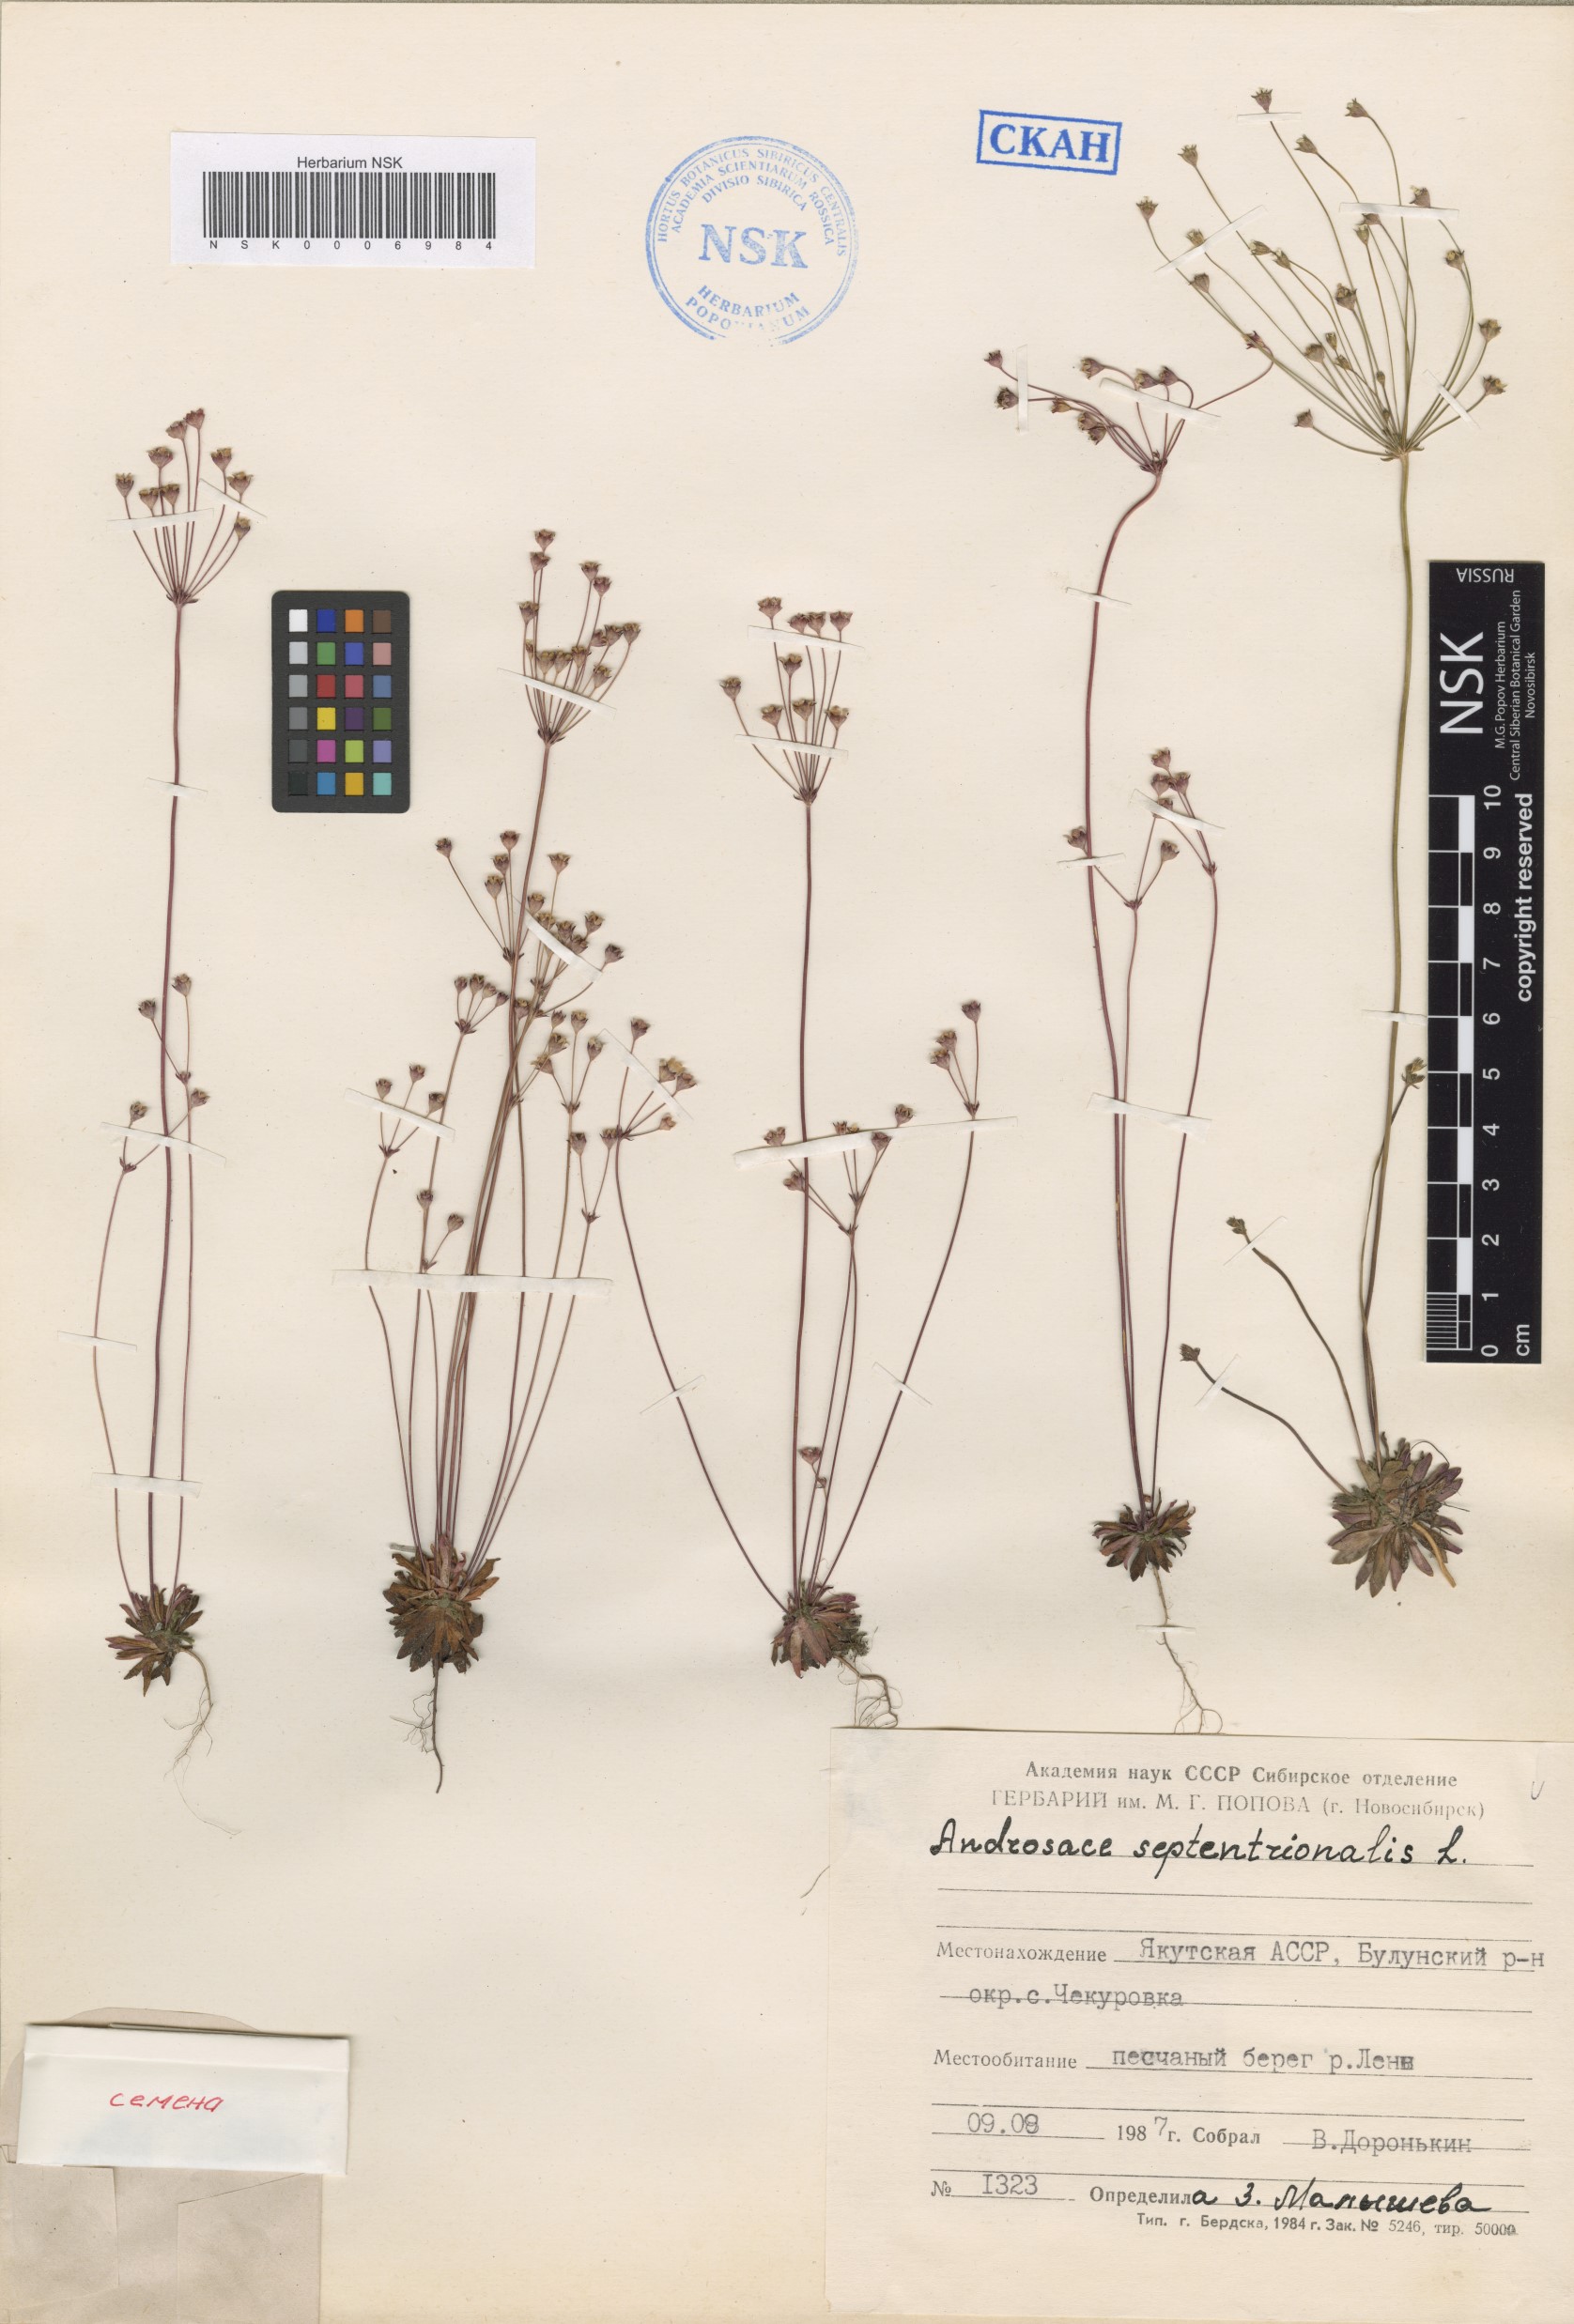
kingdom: Plantae
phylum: Tracheophyta
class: Magnoliopsida
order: Ericales
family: Primulaceae
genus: Androsace
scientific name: Androsace septentrionalis
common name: Hairy northern fairy-candelabra
